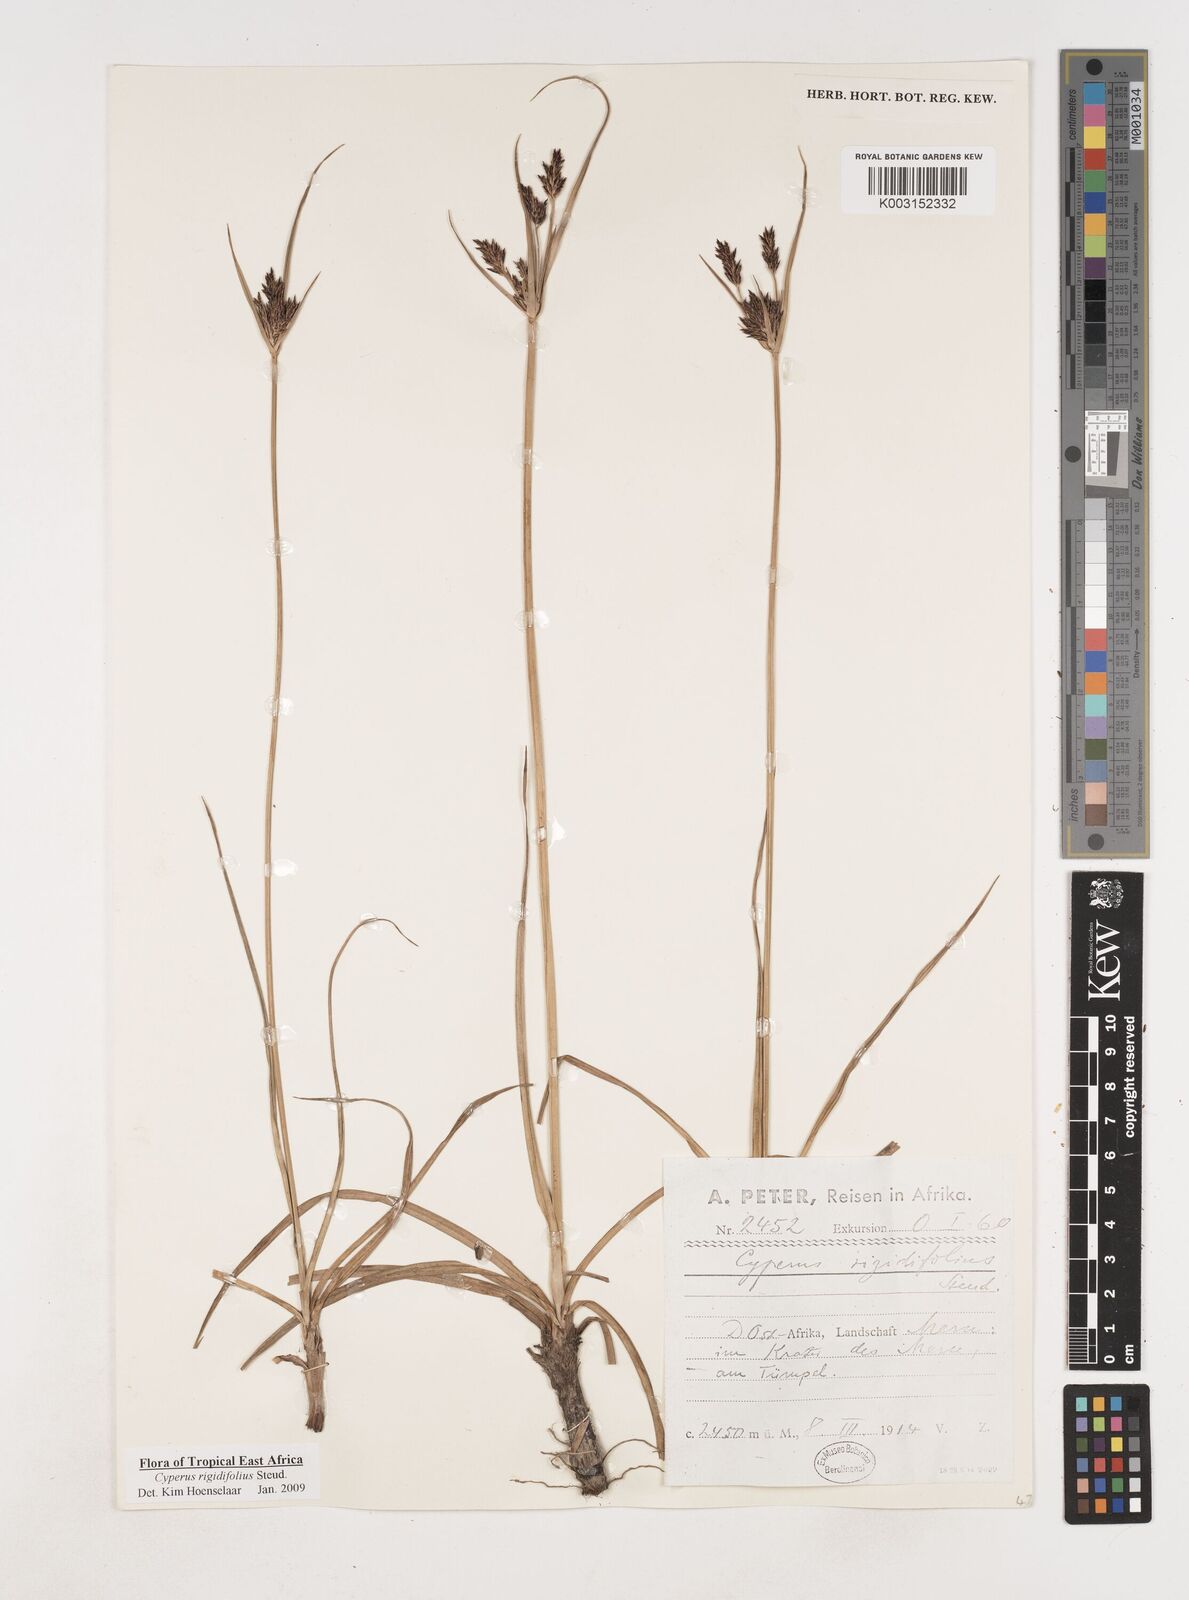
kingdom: Plantae
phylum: Tracheophyta
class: Liliopsida
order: Poales
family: Cyperaceae
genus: Cyperus
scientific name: Cyperus rigidifolius
